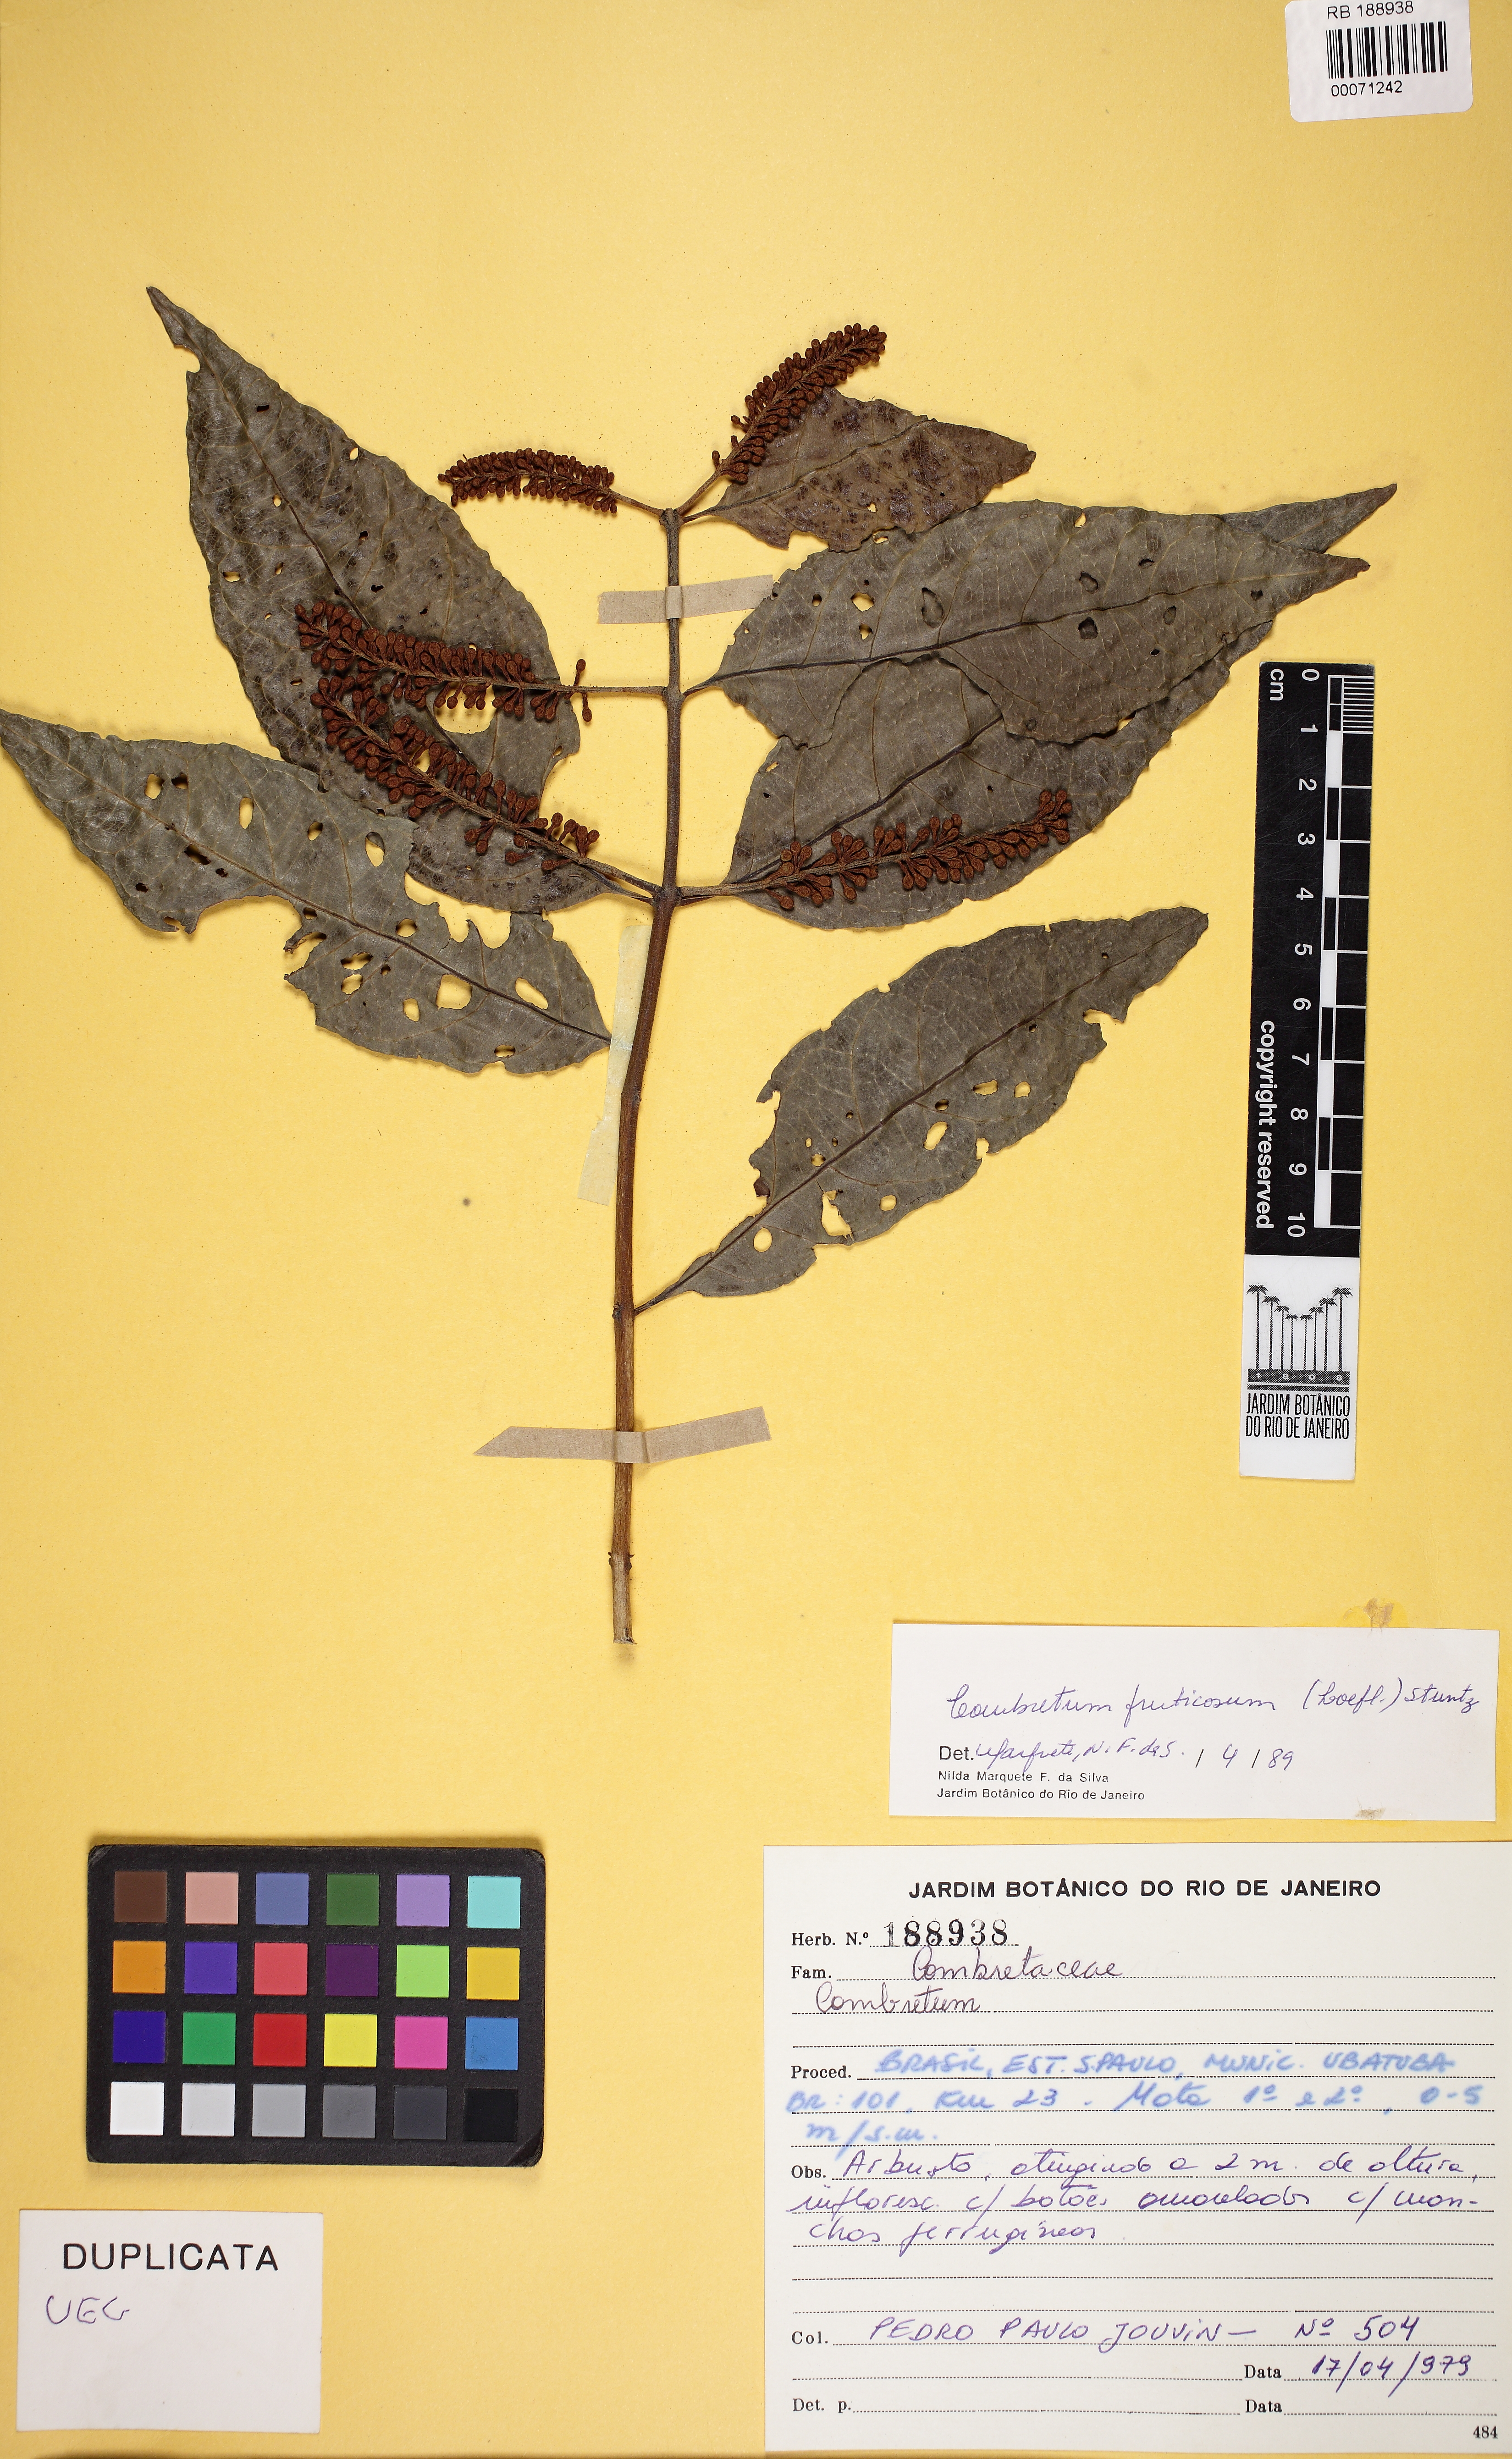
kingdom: Plantae
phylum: Tracheophyta
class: Magnoliopsida
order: Myrtales
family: Combretaceae
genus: Combretum
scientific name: Combretum fruticosum
